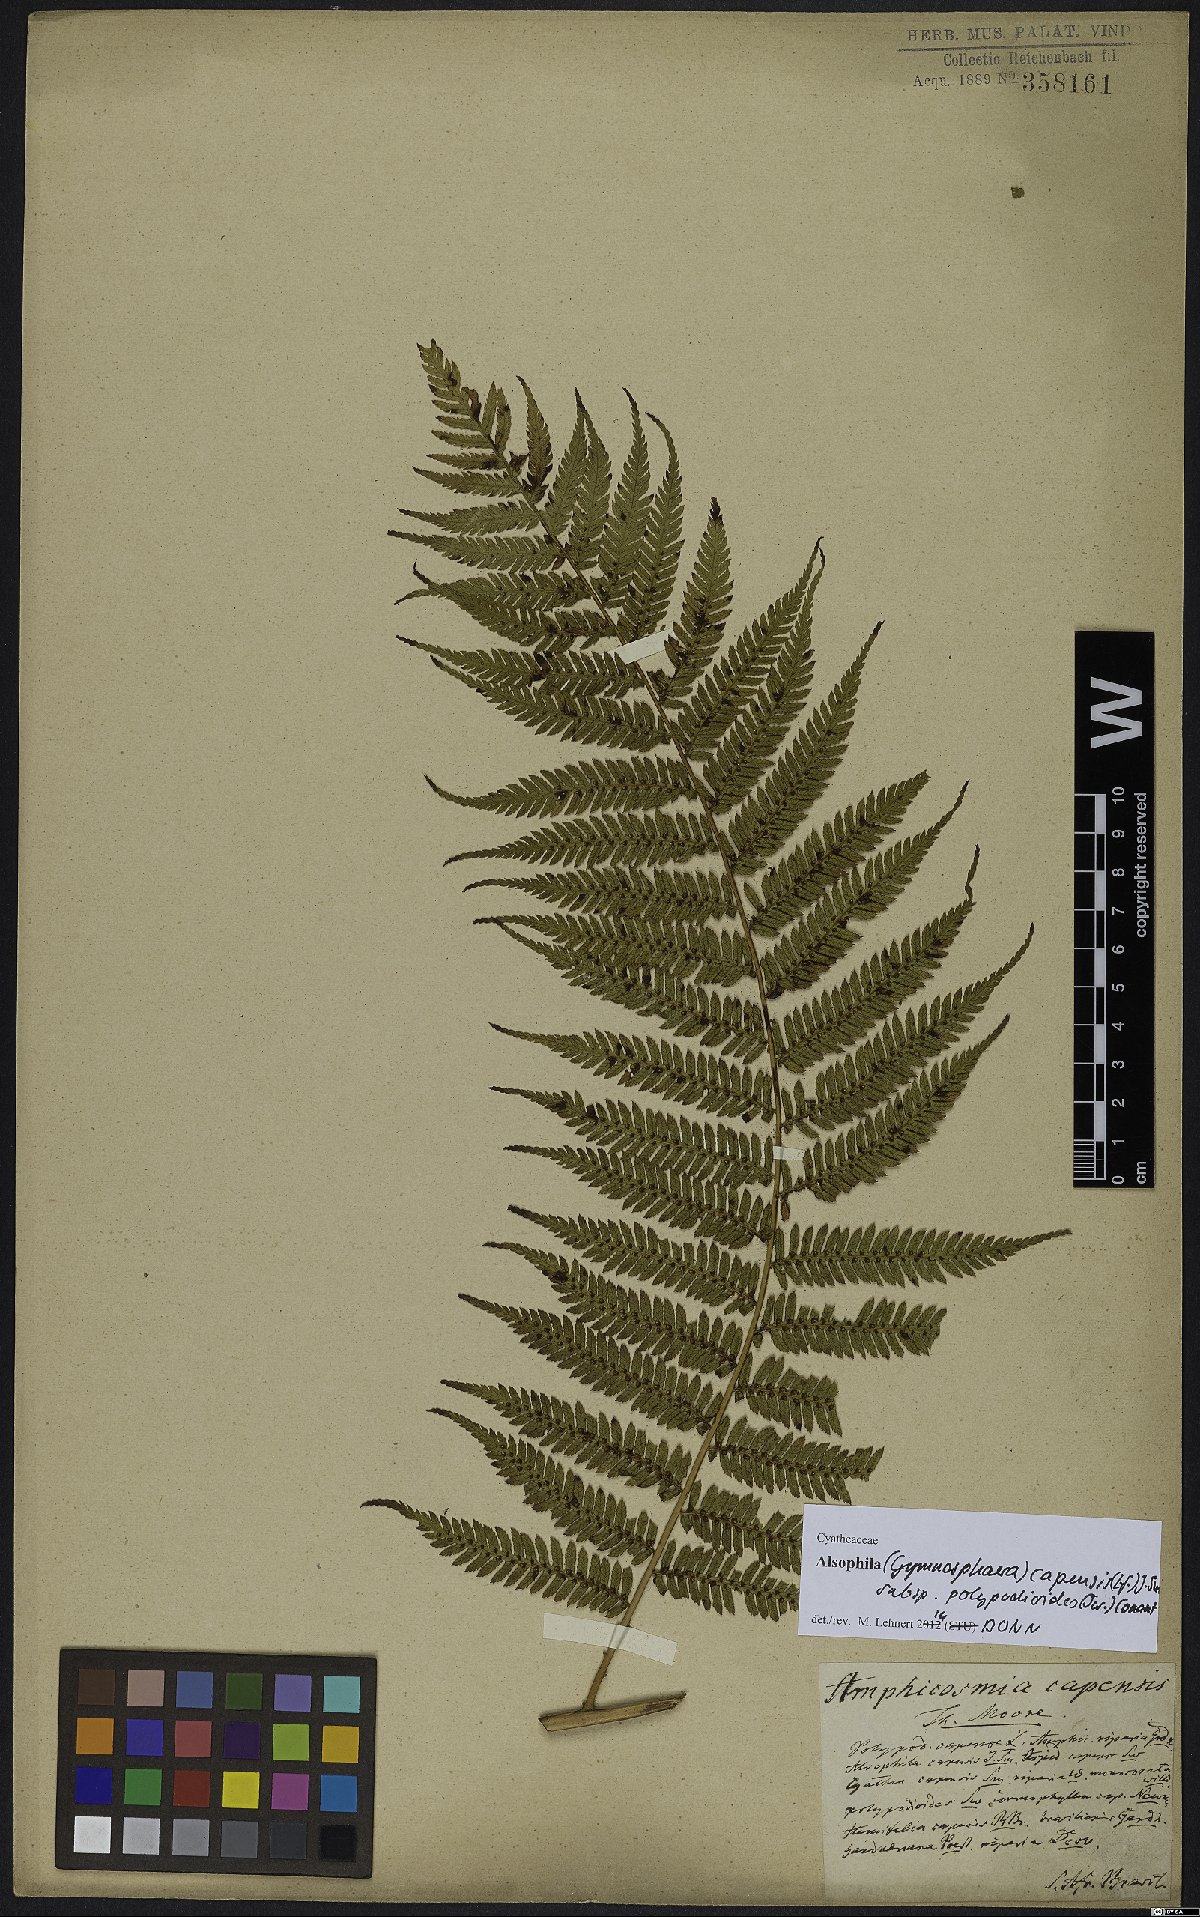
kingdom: Plantae
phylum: Tracheophyta
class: Polypodiopsida
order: Cyatheales
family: Cyatheaceae
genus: Gymnosphaera
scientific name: Gymnosphaera capensis
